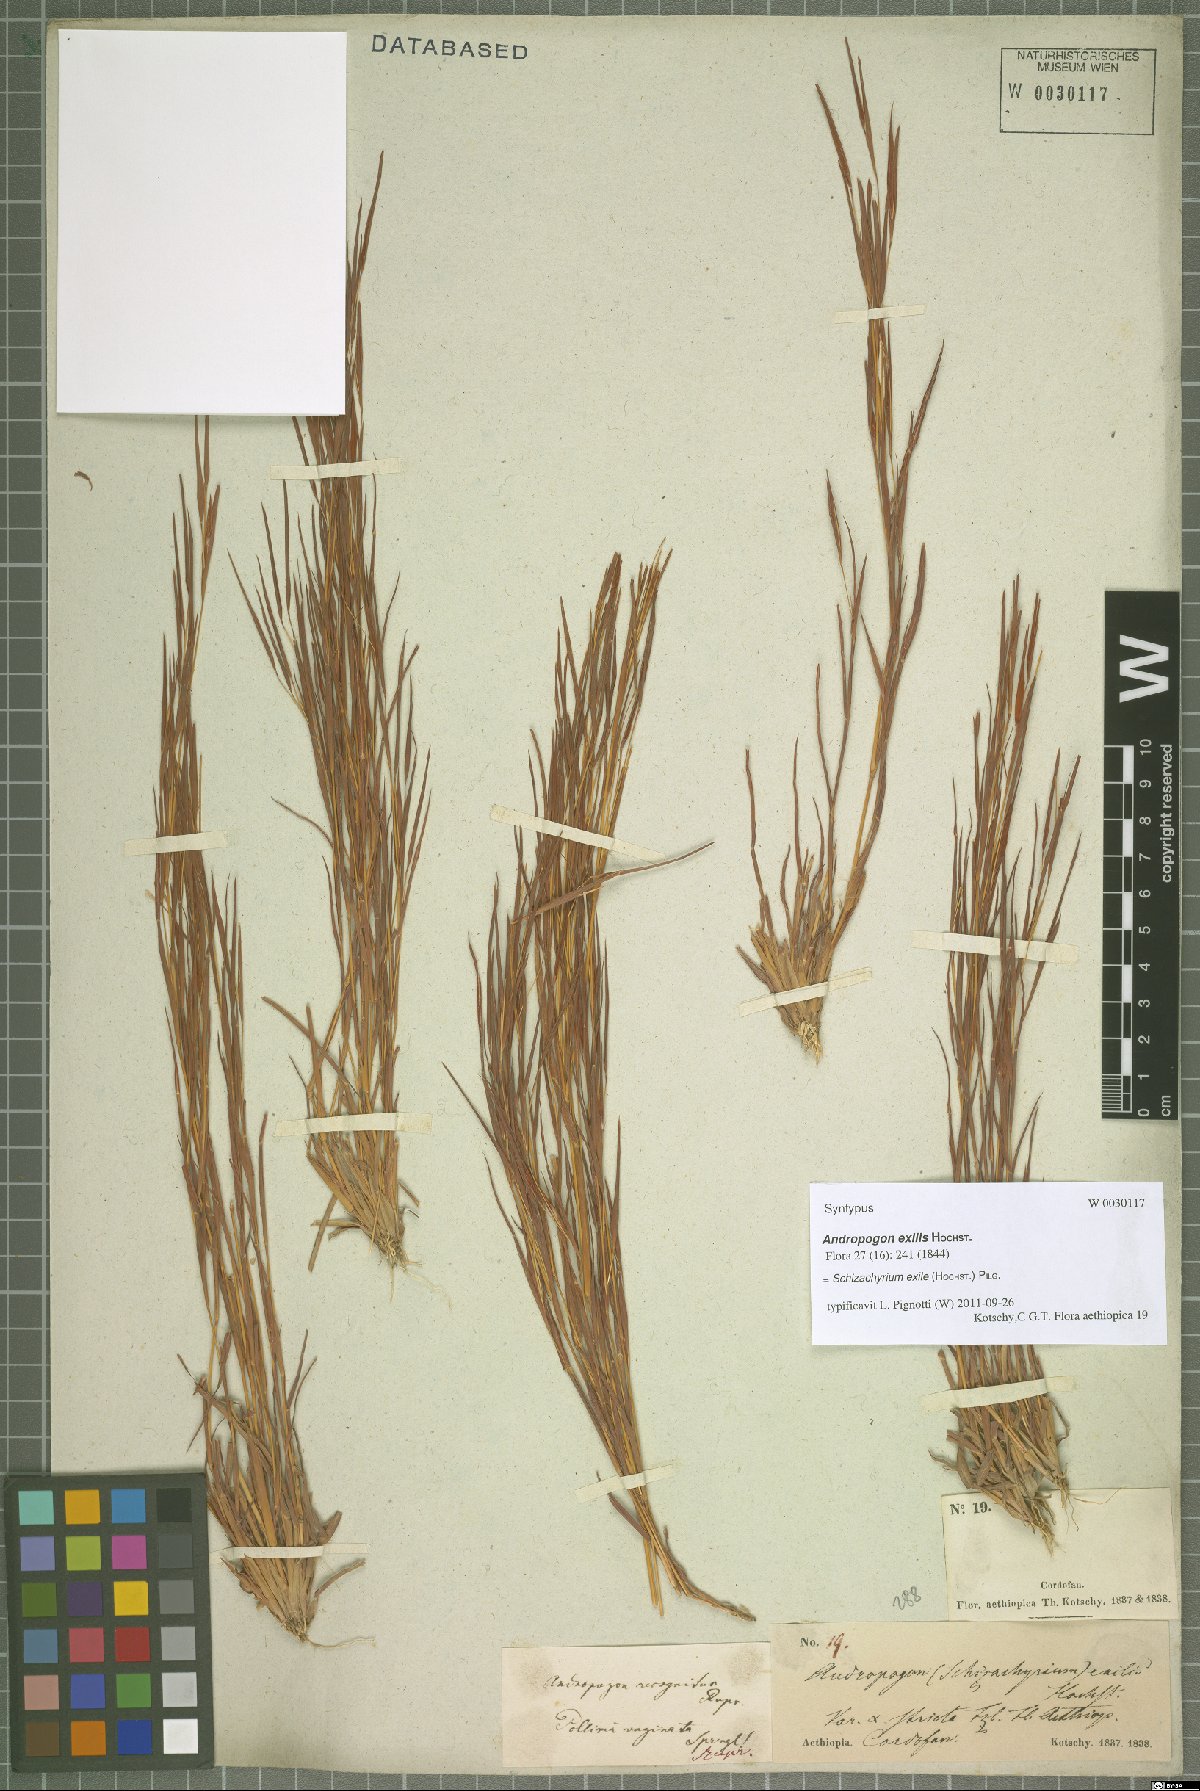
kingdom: Plantae
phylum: Tracheophyta
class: Liliopsida
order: Poales
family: Poaceae
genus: Schizachyrium
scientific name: Schizachyrium exile
